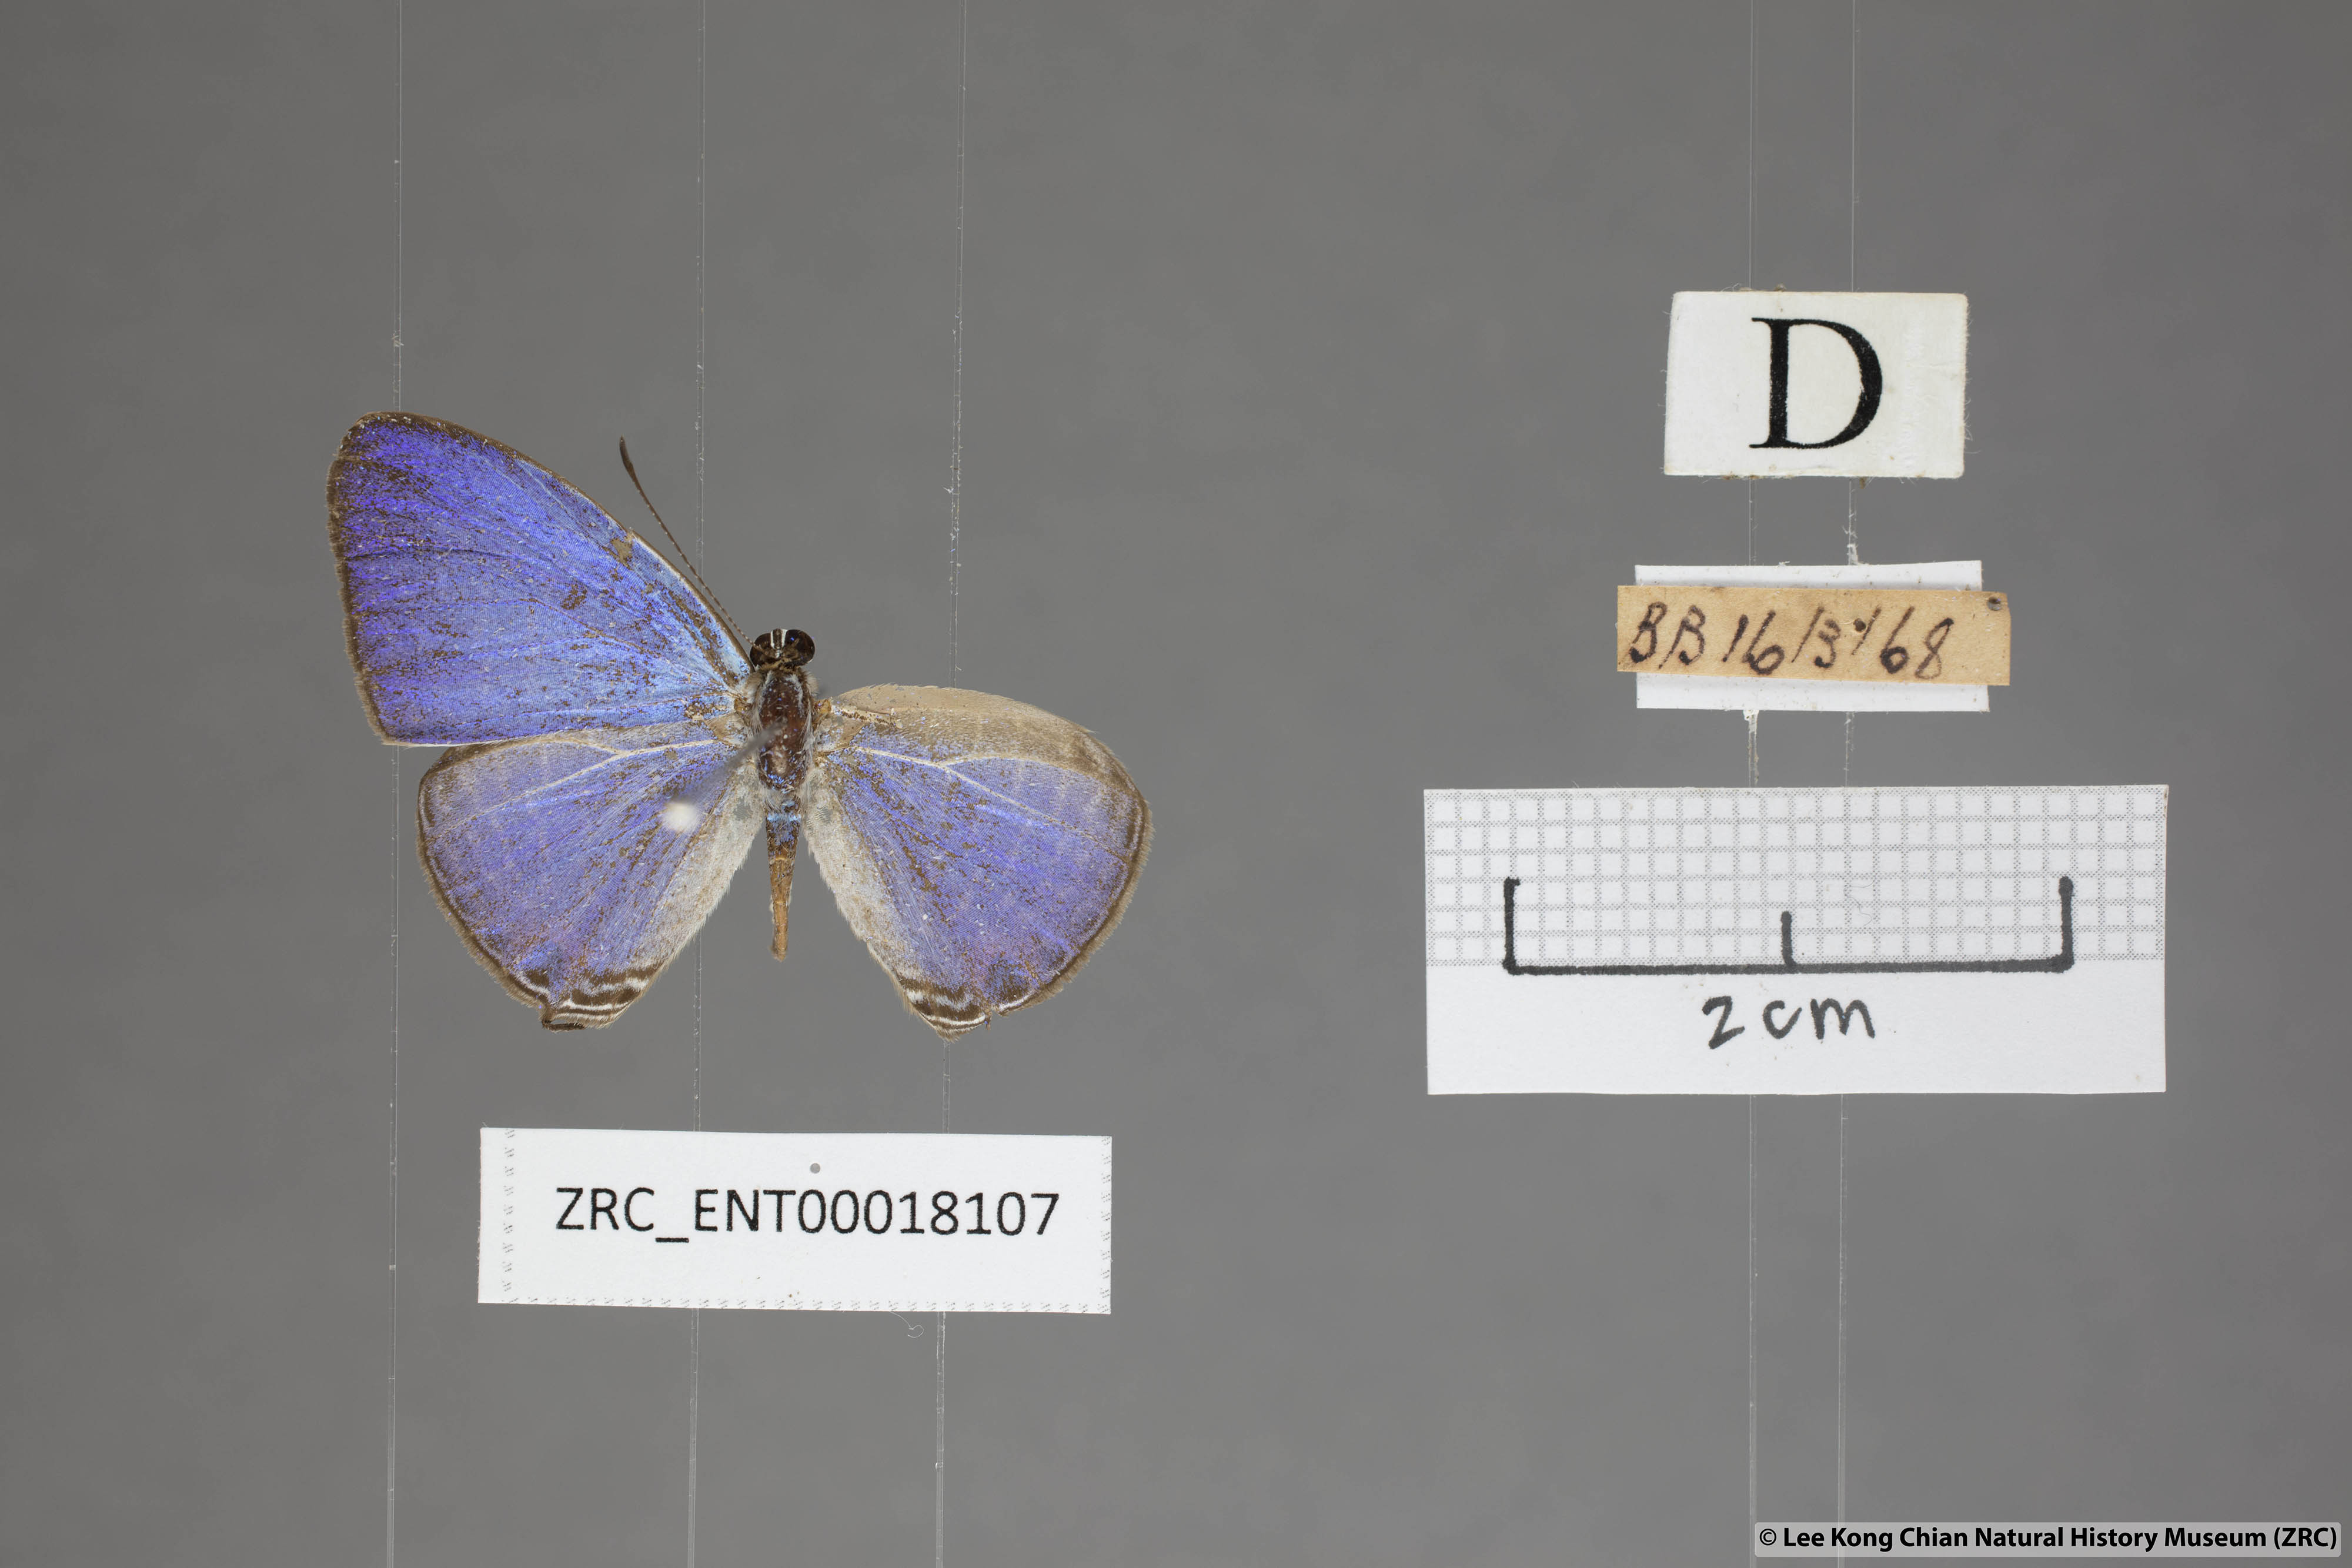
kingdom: Animalia
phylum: Arthropoda
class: Insecta
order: Lepidoptera
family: Lycaenidae
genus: Jamides
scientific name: Jamides
